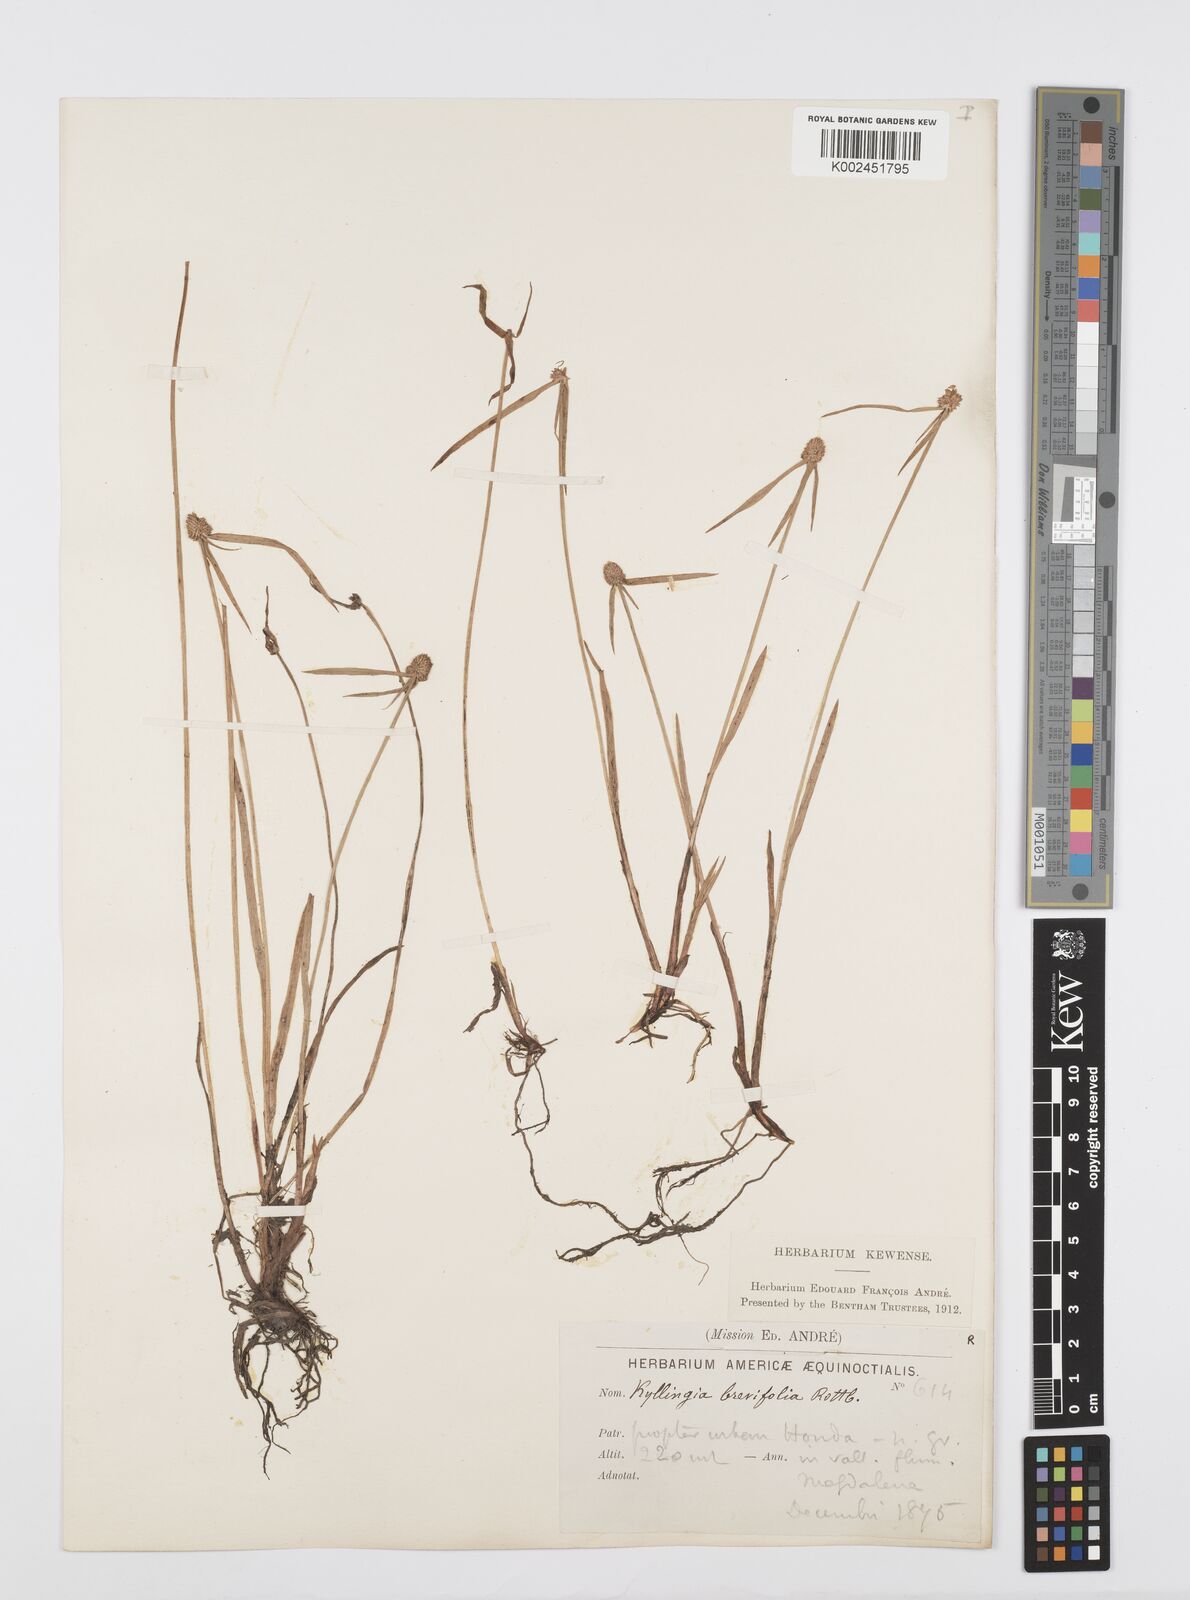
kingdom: Plantae
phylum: Tracheophyta
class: Liliopsida
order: Poales
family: Cyperaceae
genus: Cyperus
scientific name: Cyperus brevifolius
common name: Globe kyllinga
